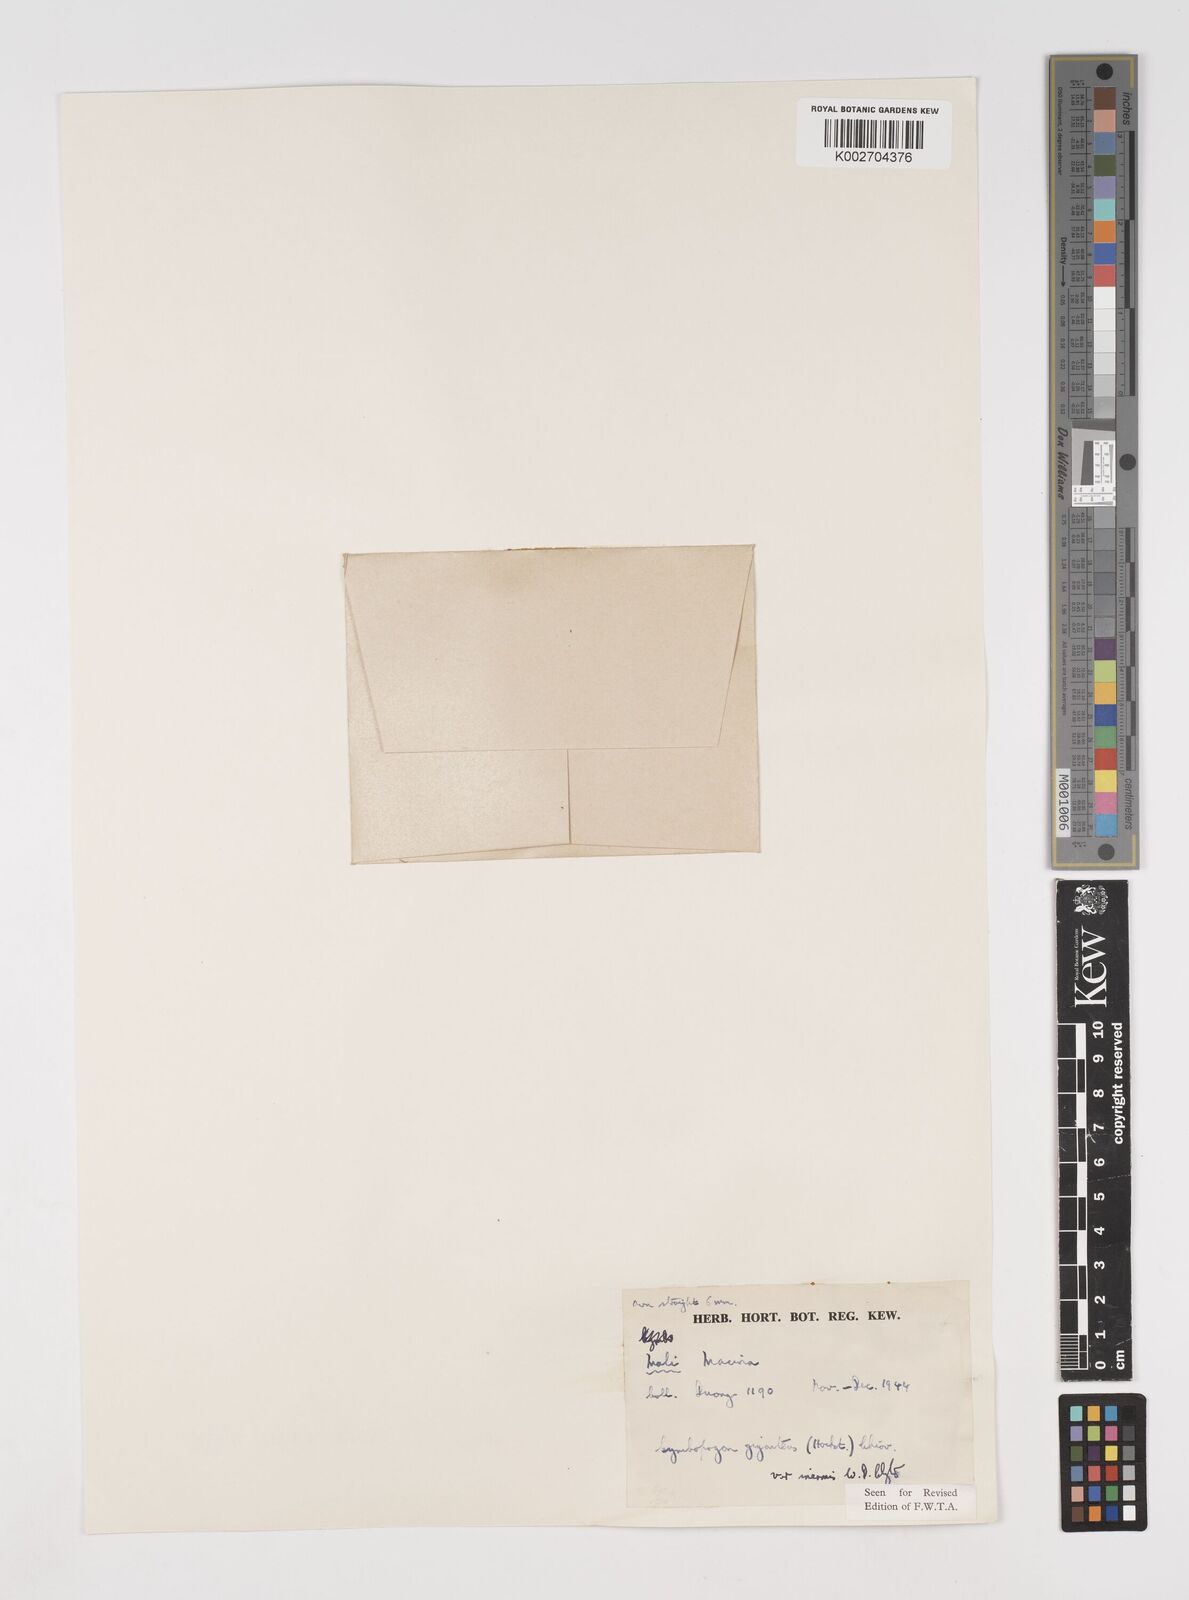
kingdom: Plantae
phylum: Tracheophyta
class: Liliopsida
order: Poales
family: Poaceae
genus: Cymbopogon
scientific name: Cymbopogon giganteus
